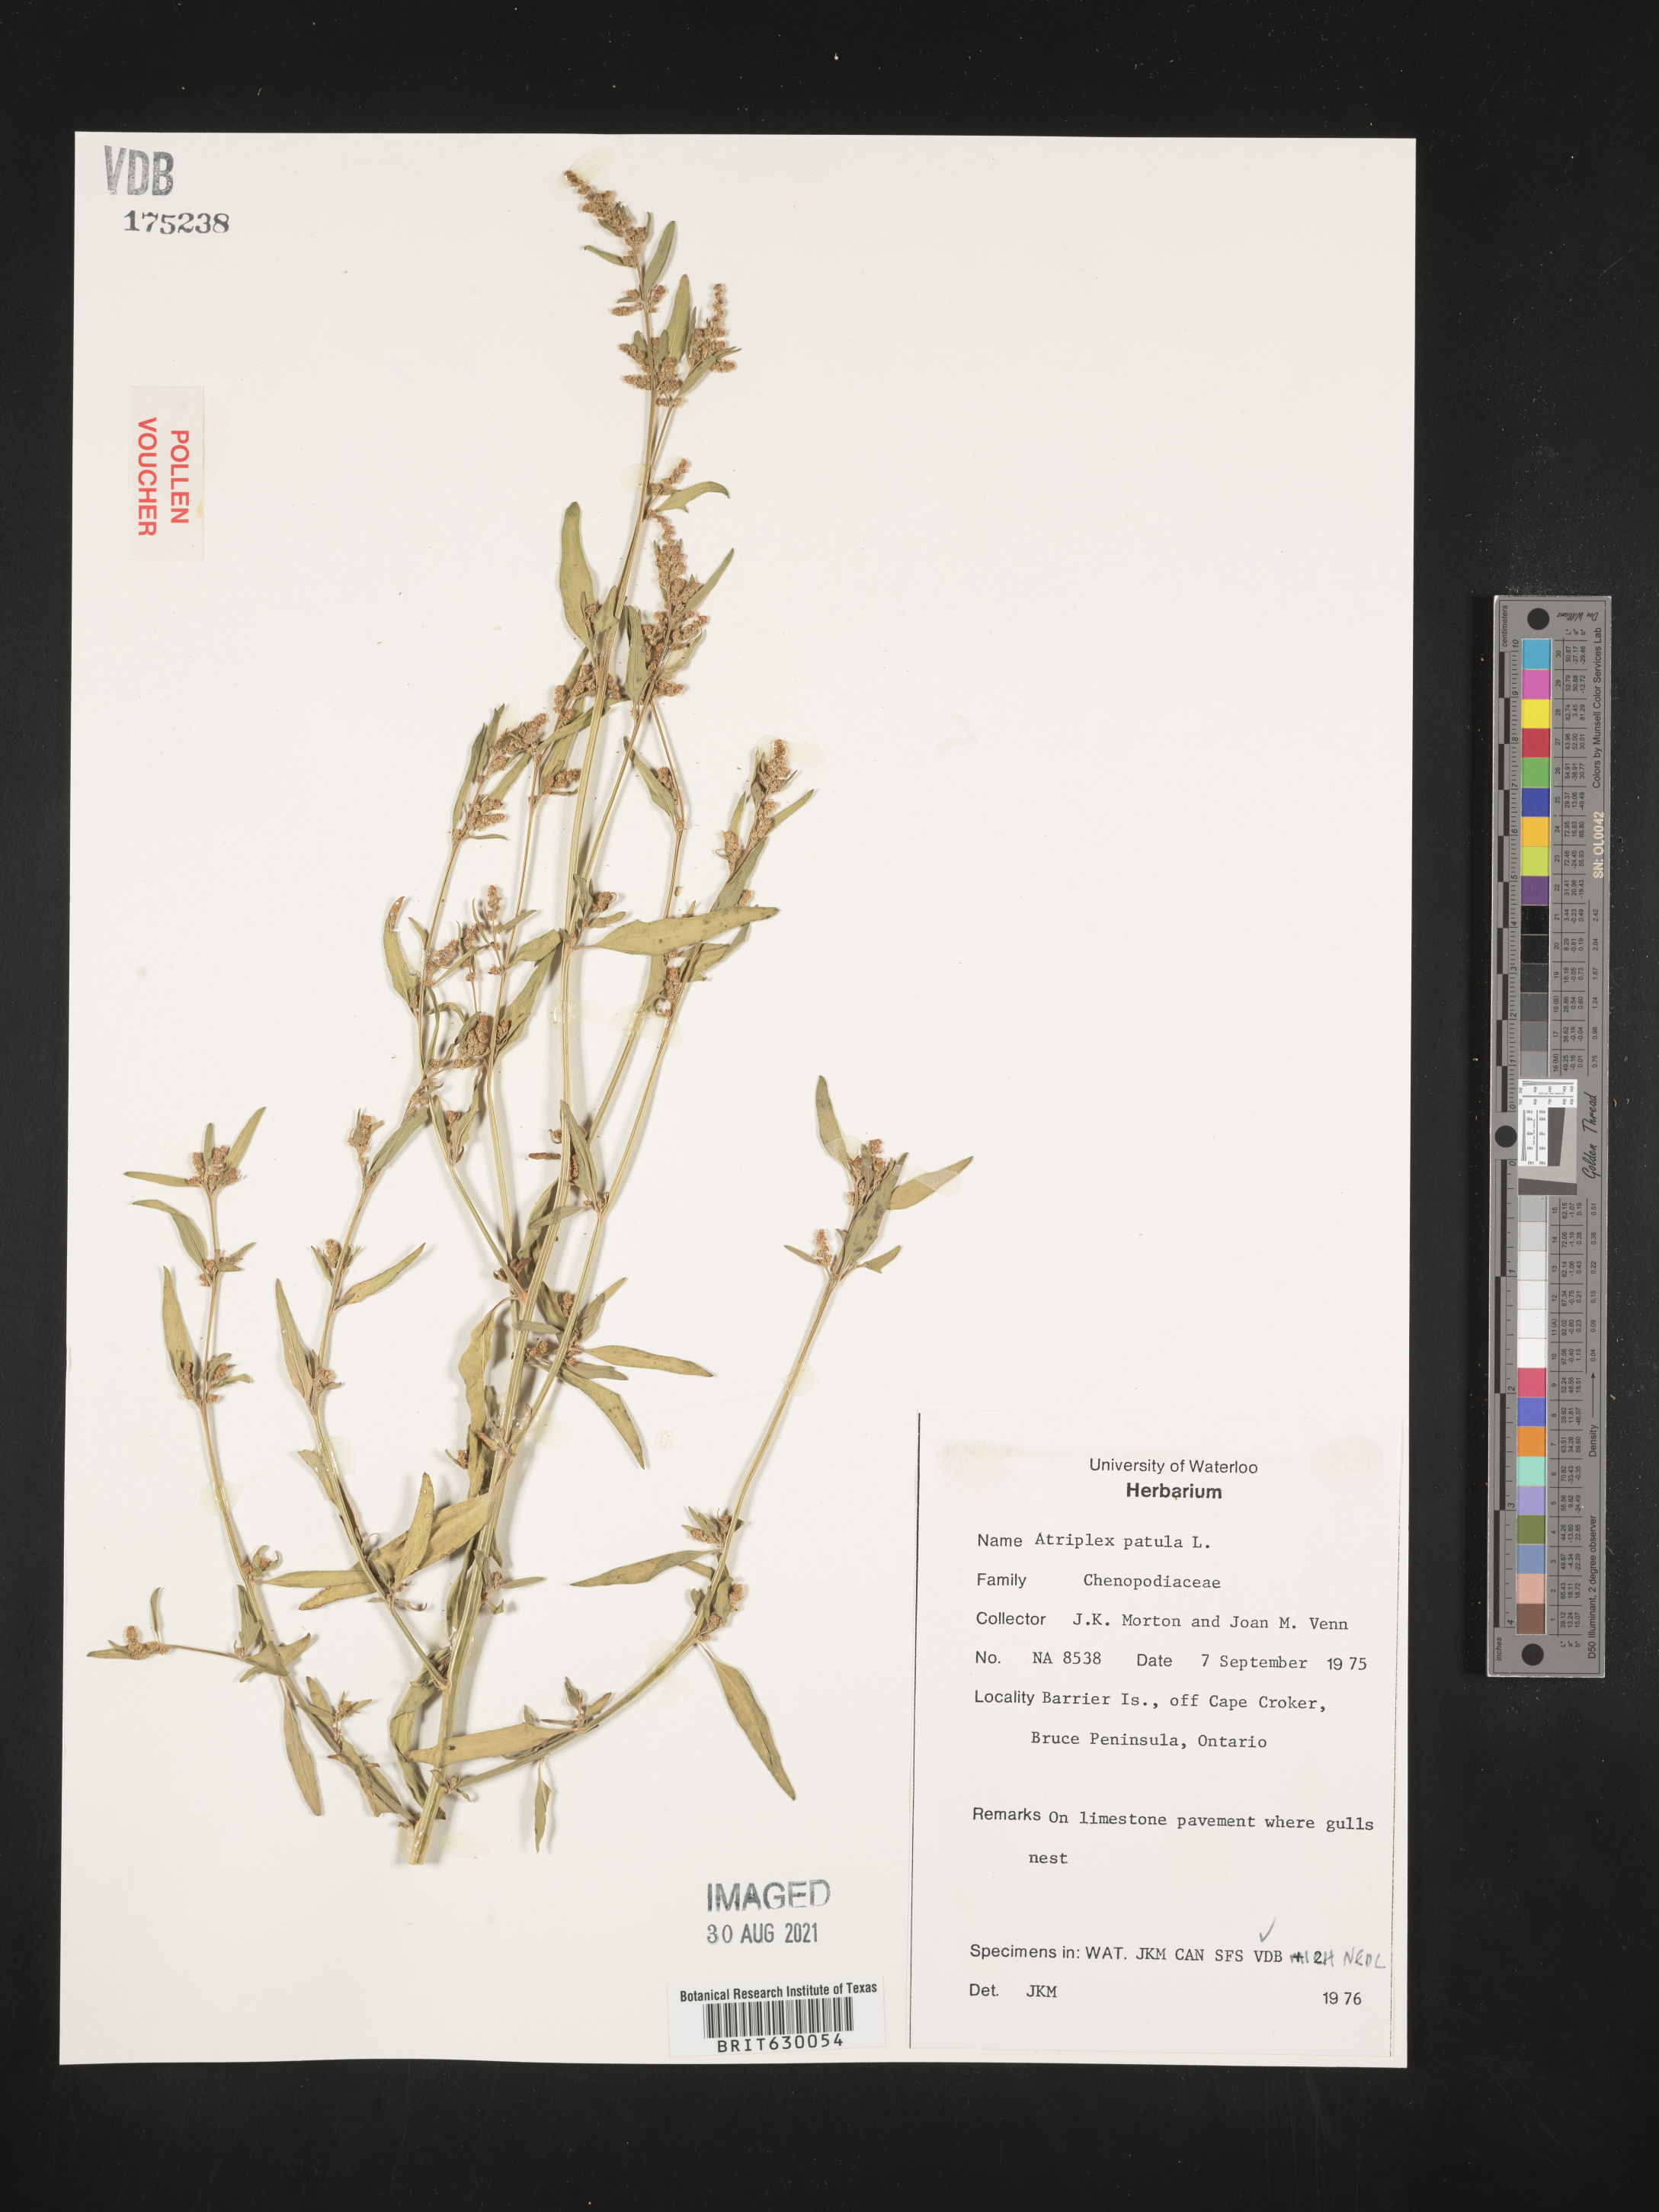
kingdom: Plantae
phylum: Tracheophyta
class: Magnoliopsida
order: Caryophyllales
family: Amaranthaceae
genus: Atriplex
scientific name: Atriplex patula
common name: Common orache
